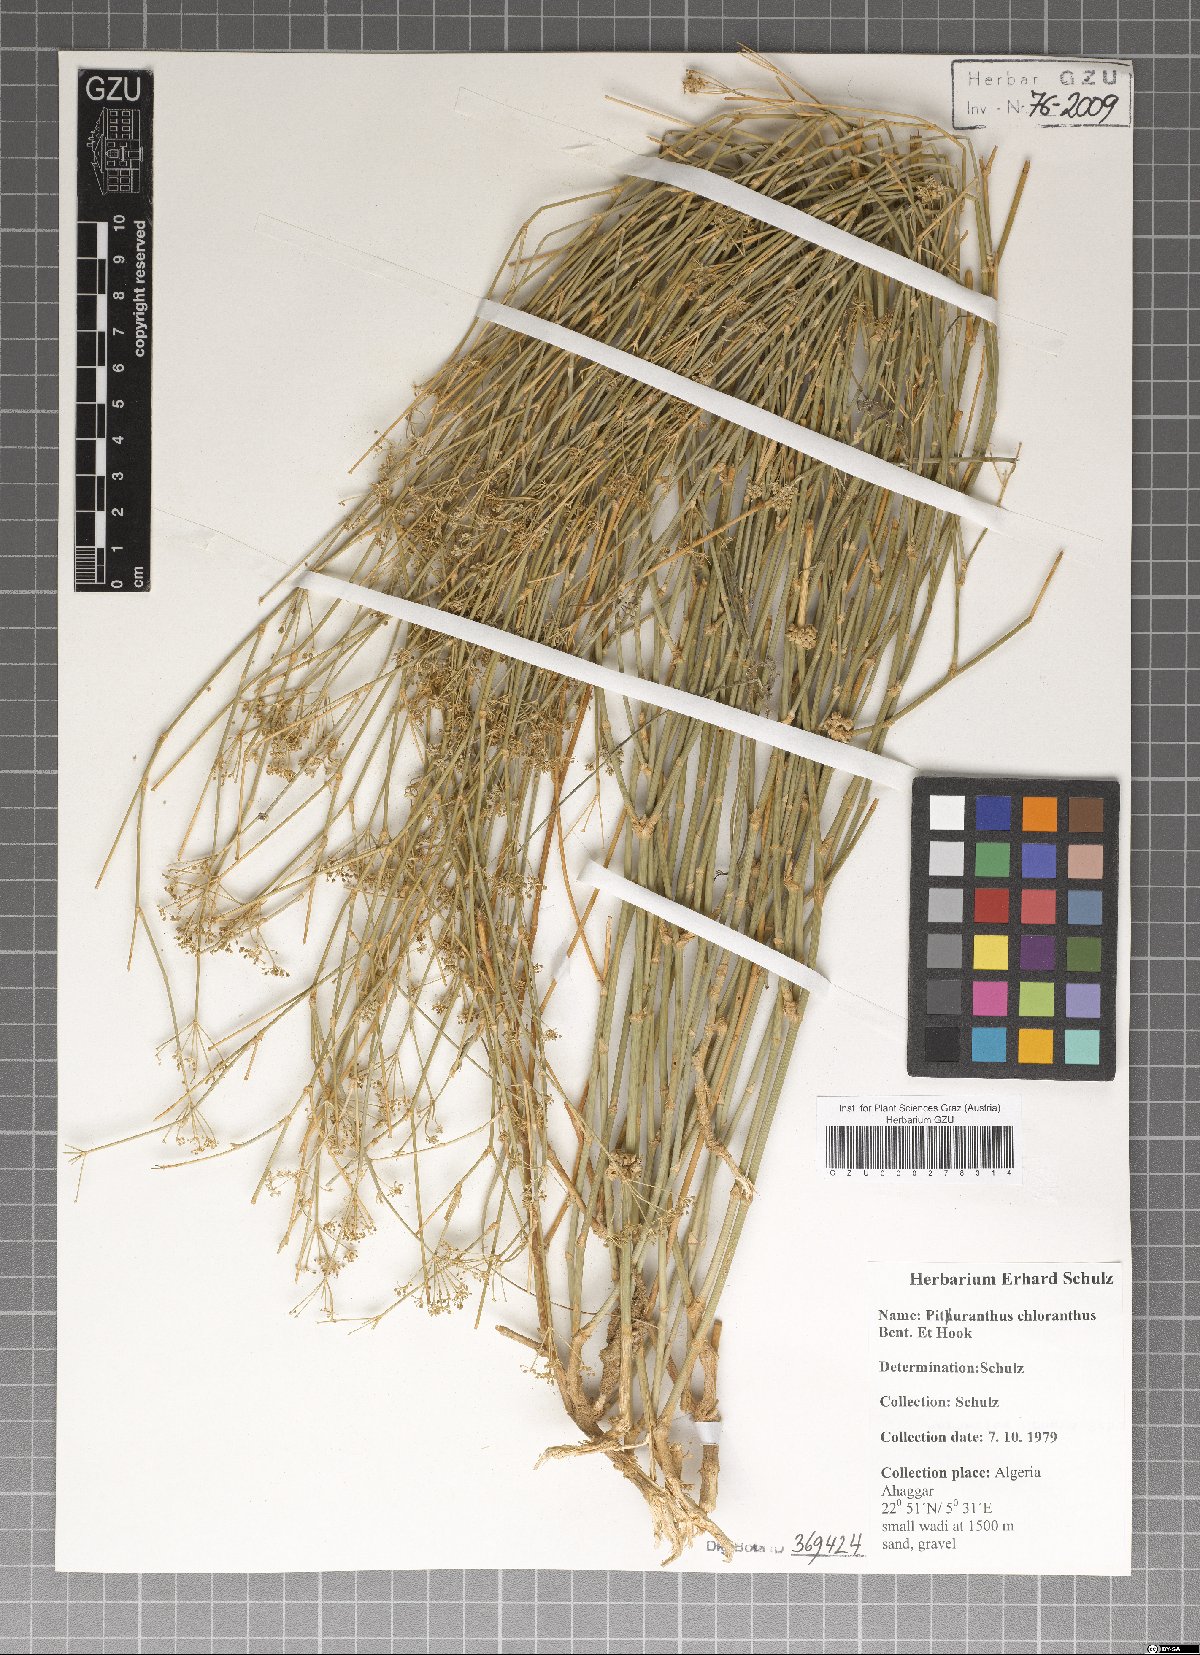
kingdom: Plantae
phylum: Tracheophyta
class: Magnoliopsida
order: Apiales
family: Apiaceae
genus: Deverra
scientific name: Deverra denudata
